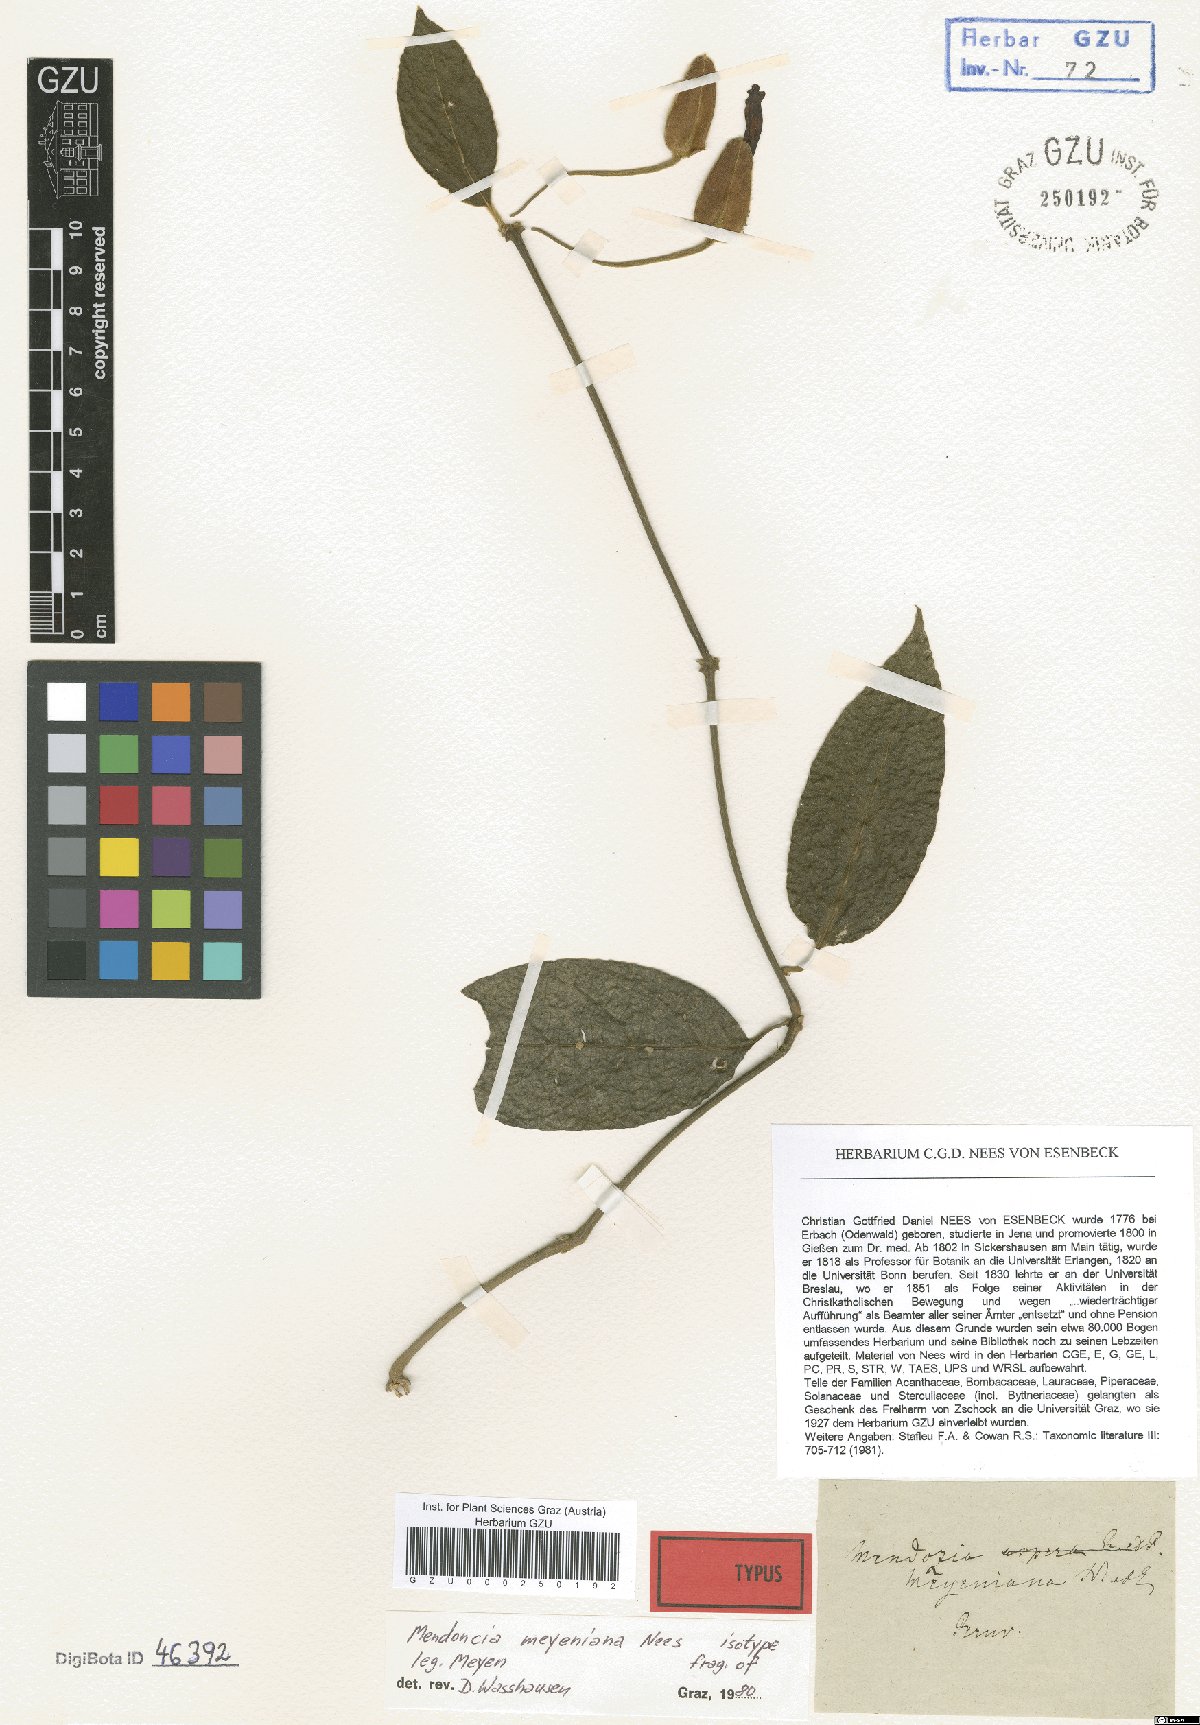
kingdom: Plantae
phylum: Tracheophyta
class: Magnoliopsida
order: Lamiales
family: Acanthaceae
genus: Mendoncia
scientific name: Mendoncia meyeniana
